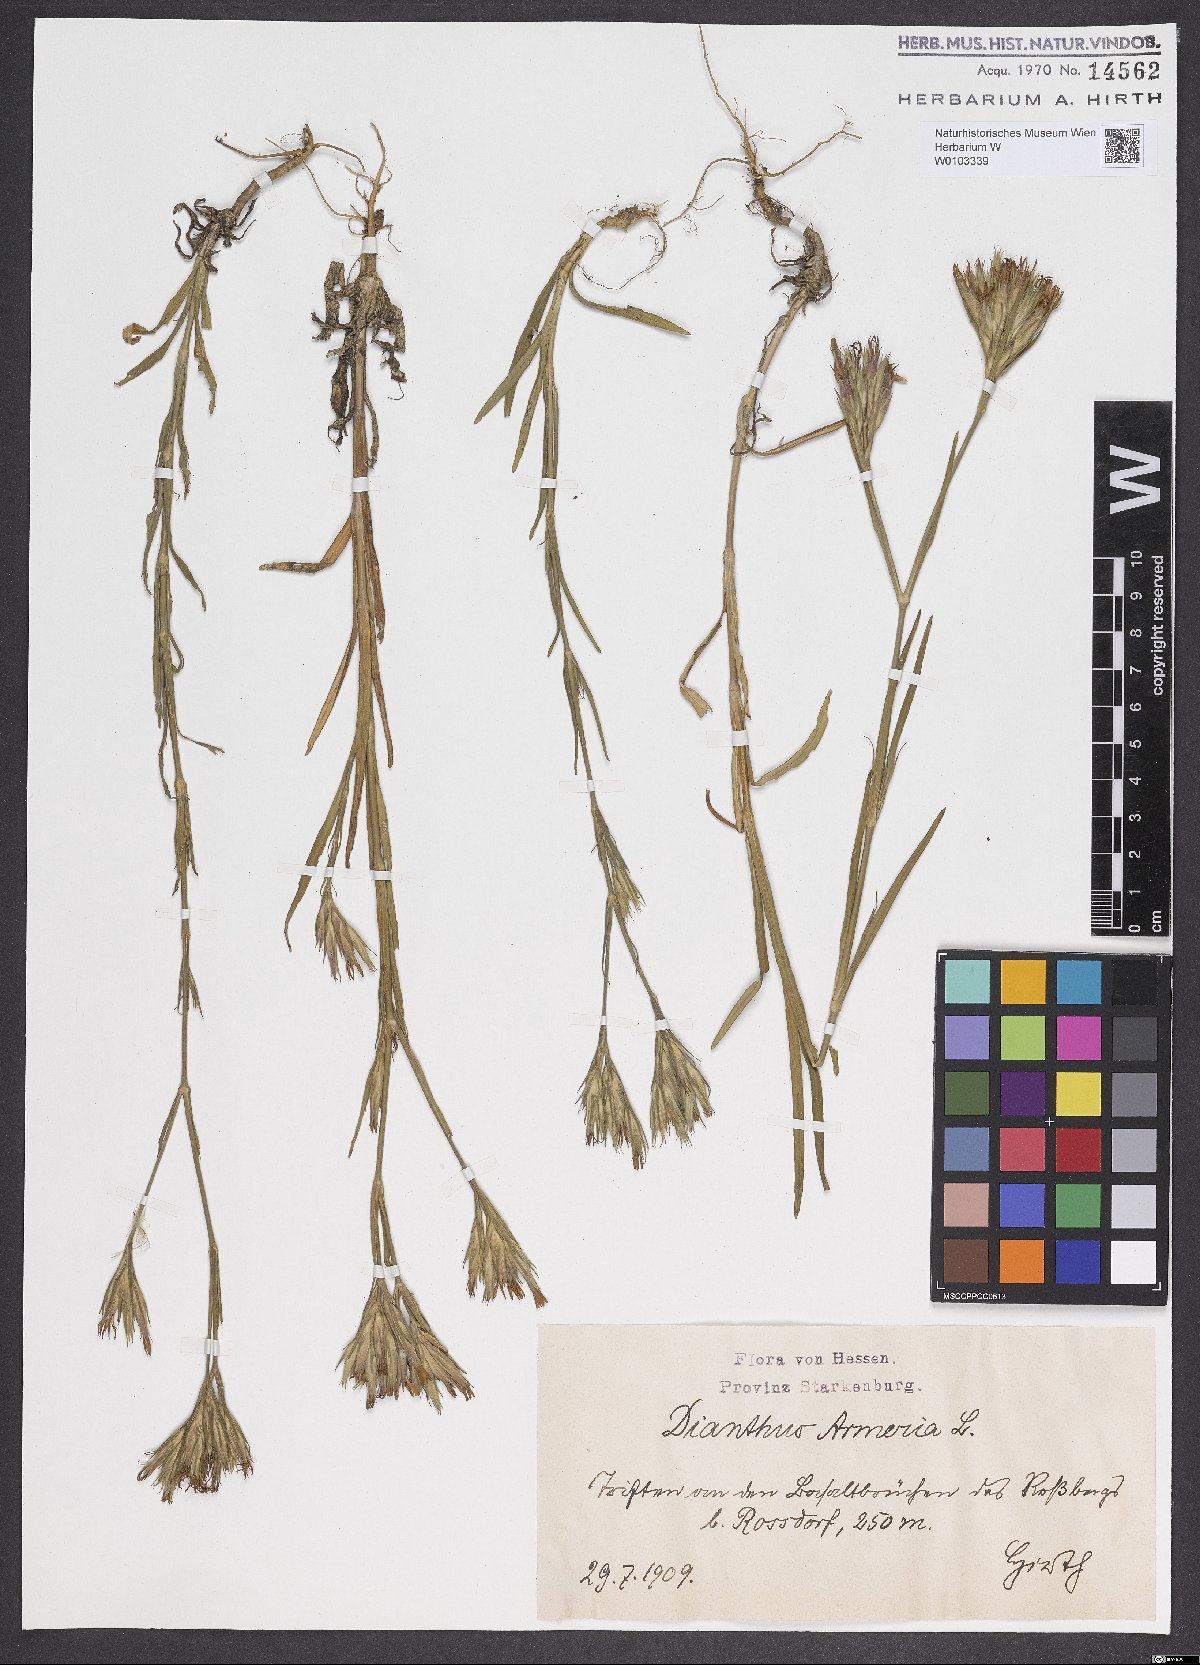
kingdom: Plantae
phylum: Tracheophyta
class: Magnoliopsida
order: Caryophyllales
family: Caryophyllaceae
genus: Dianthus
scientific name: Dianthus armeria
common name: Deptford pink
